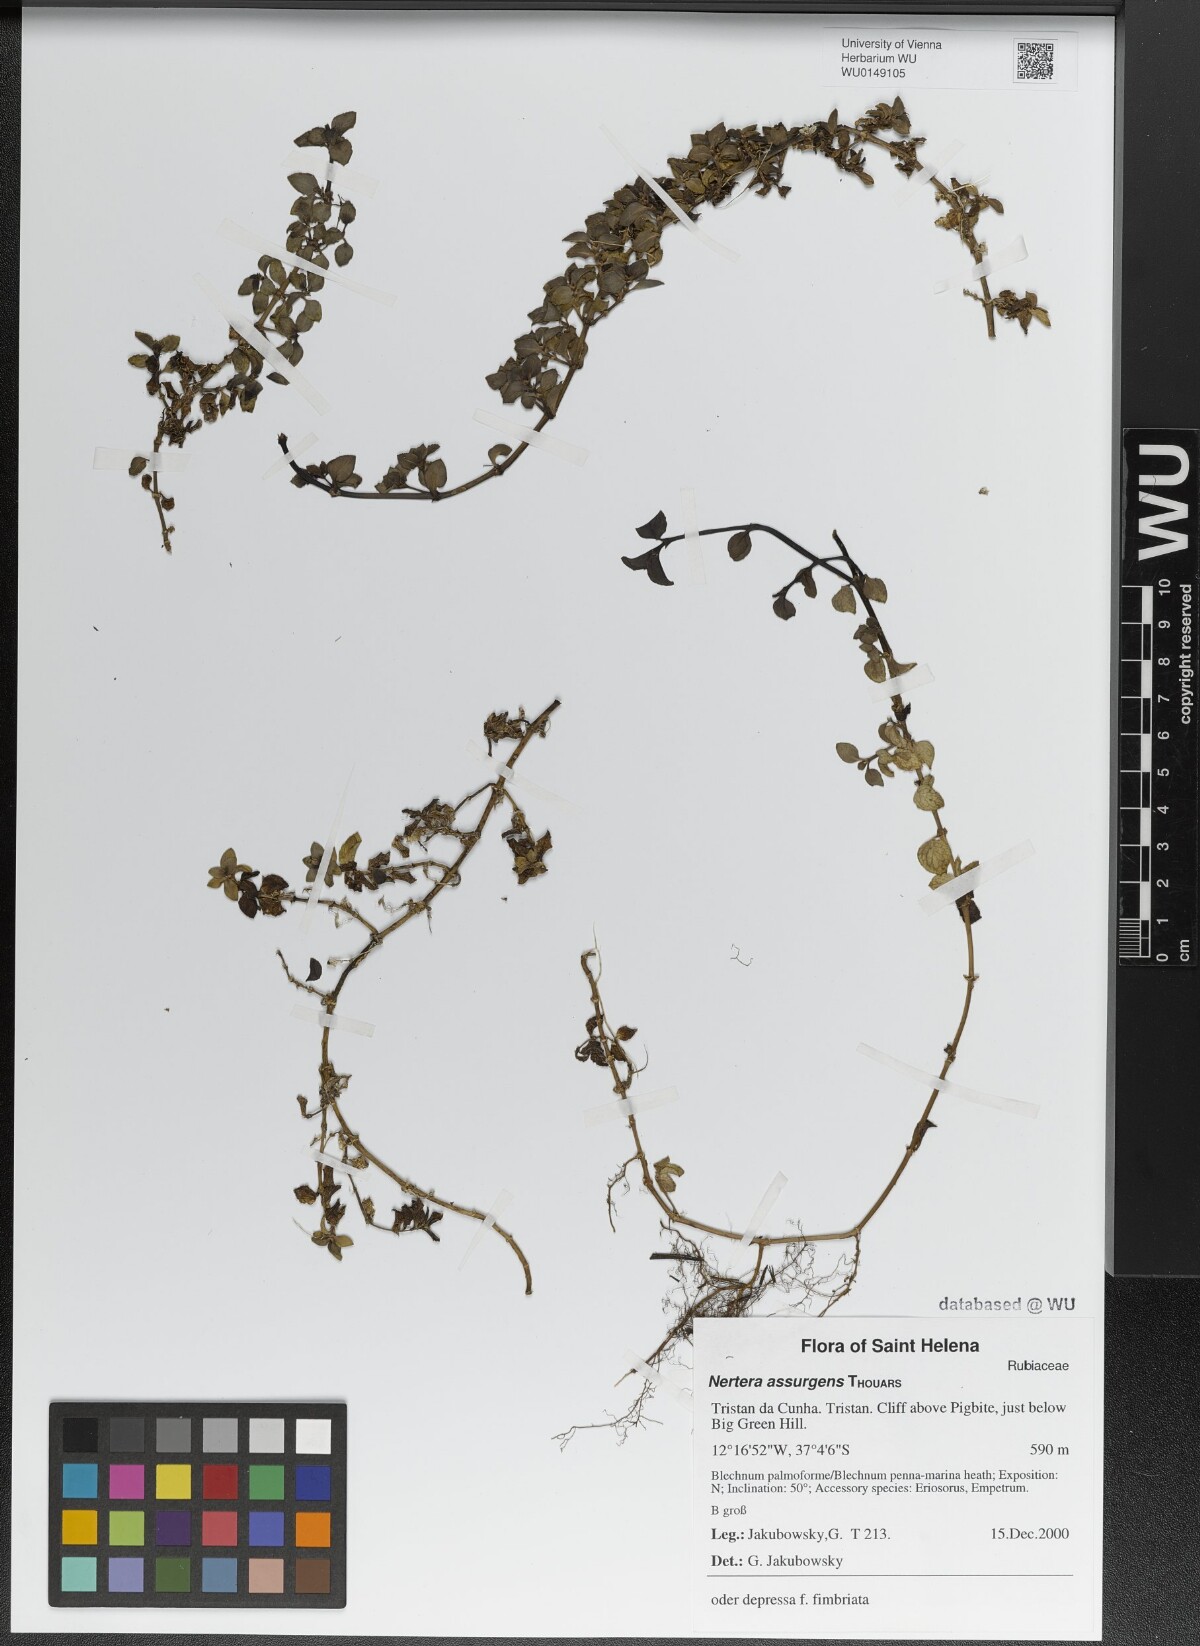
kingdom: Plantae
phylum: Tracheophyta
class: Magnoliopsida
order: Gentianales
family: Rubiaceae
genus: Nertera
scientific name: Nertera granadensis
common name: Beadplant
